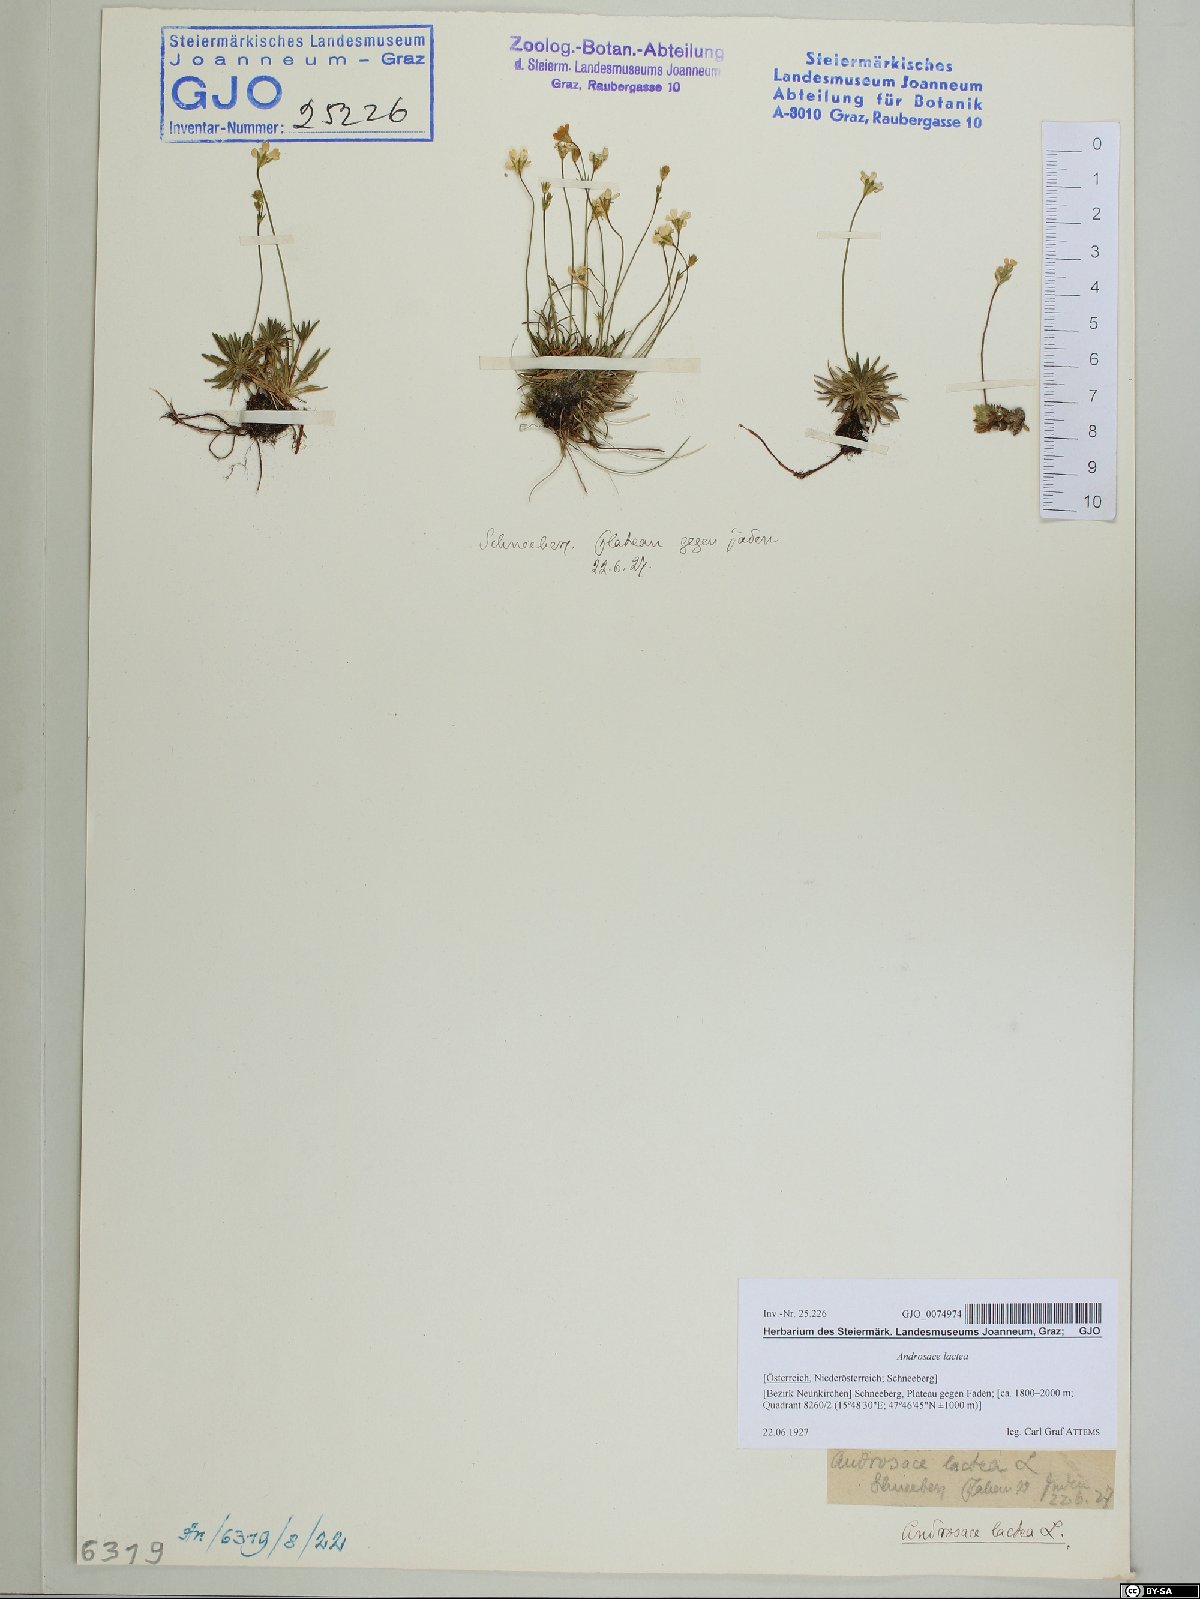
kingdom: Plantae
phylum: Tracheophyta
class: Magnoliopsida
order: Ericales
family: Primulaceae
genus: Androsace
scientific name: Androsace lactea
